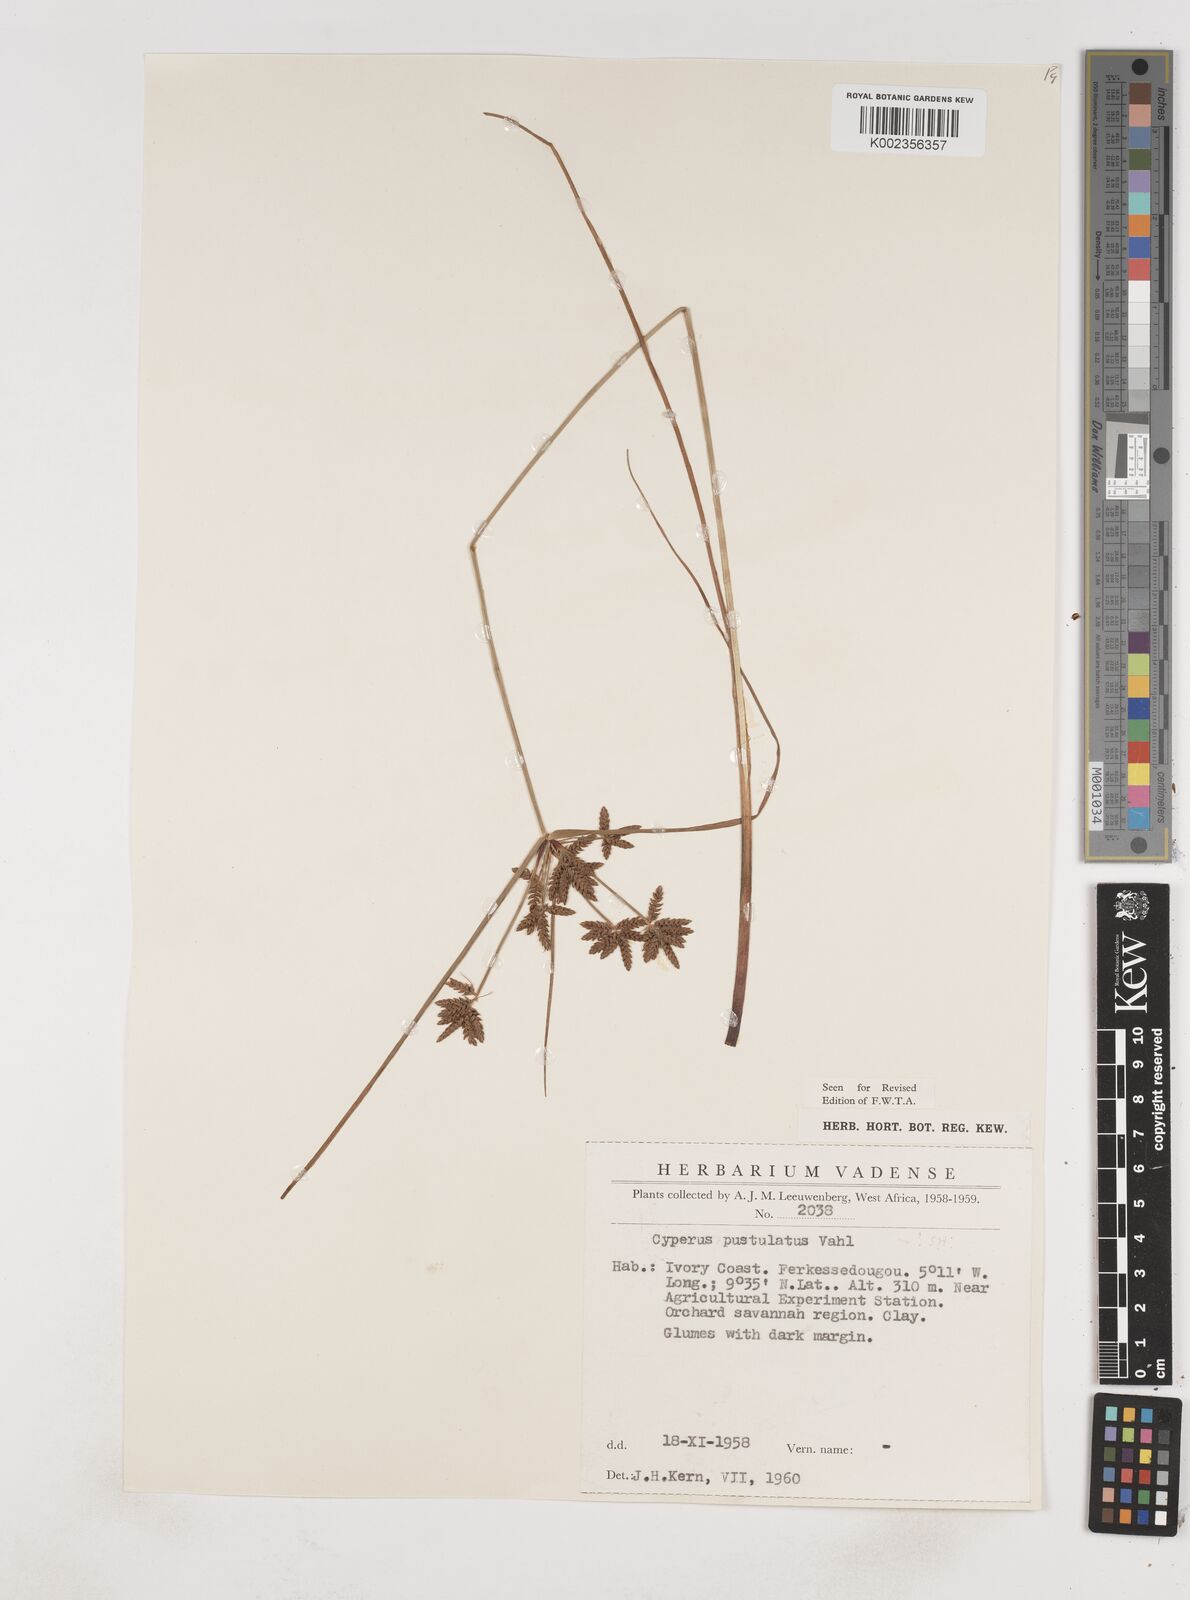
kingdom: Plantae
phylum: Tracheophyta
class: Liliopsida
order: Poales
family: Cyperaceae
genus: Cyperus
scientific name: Cyperus pustulatus
